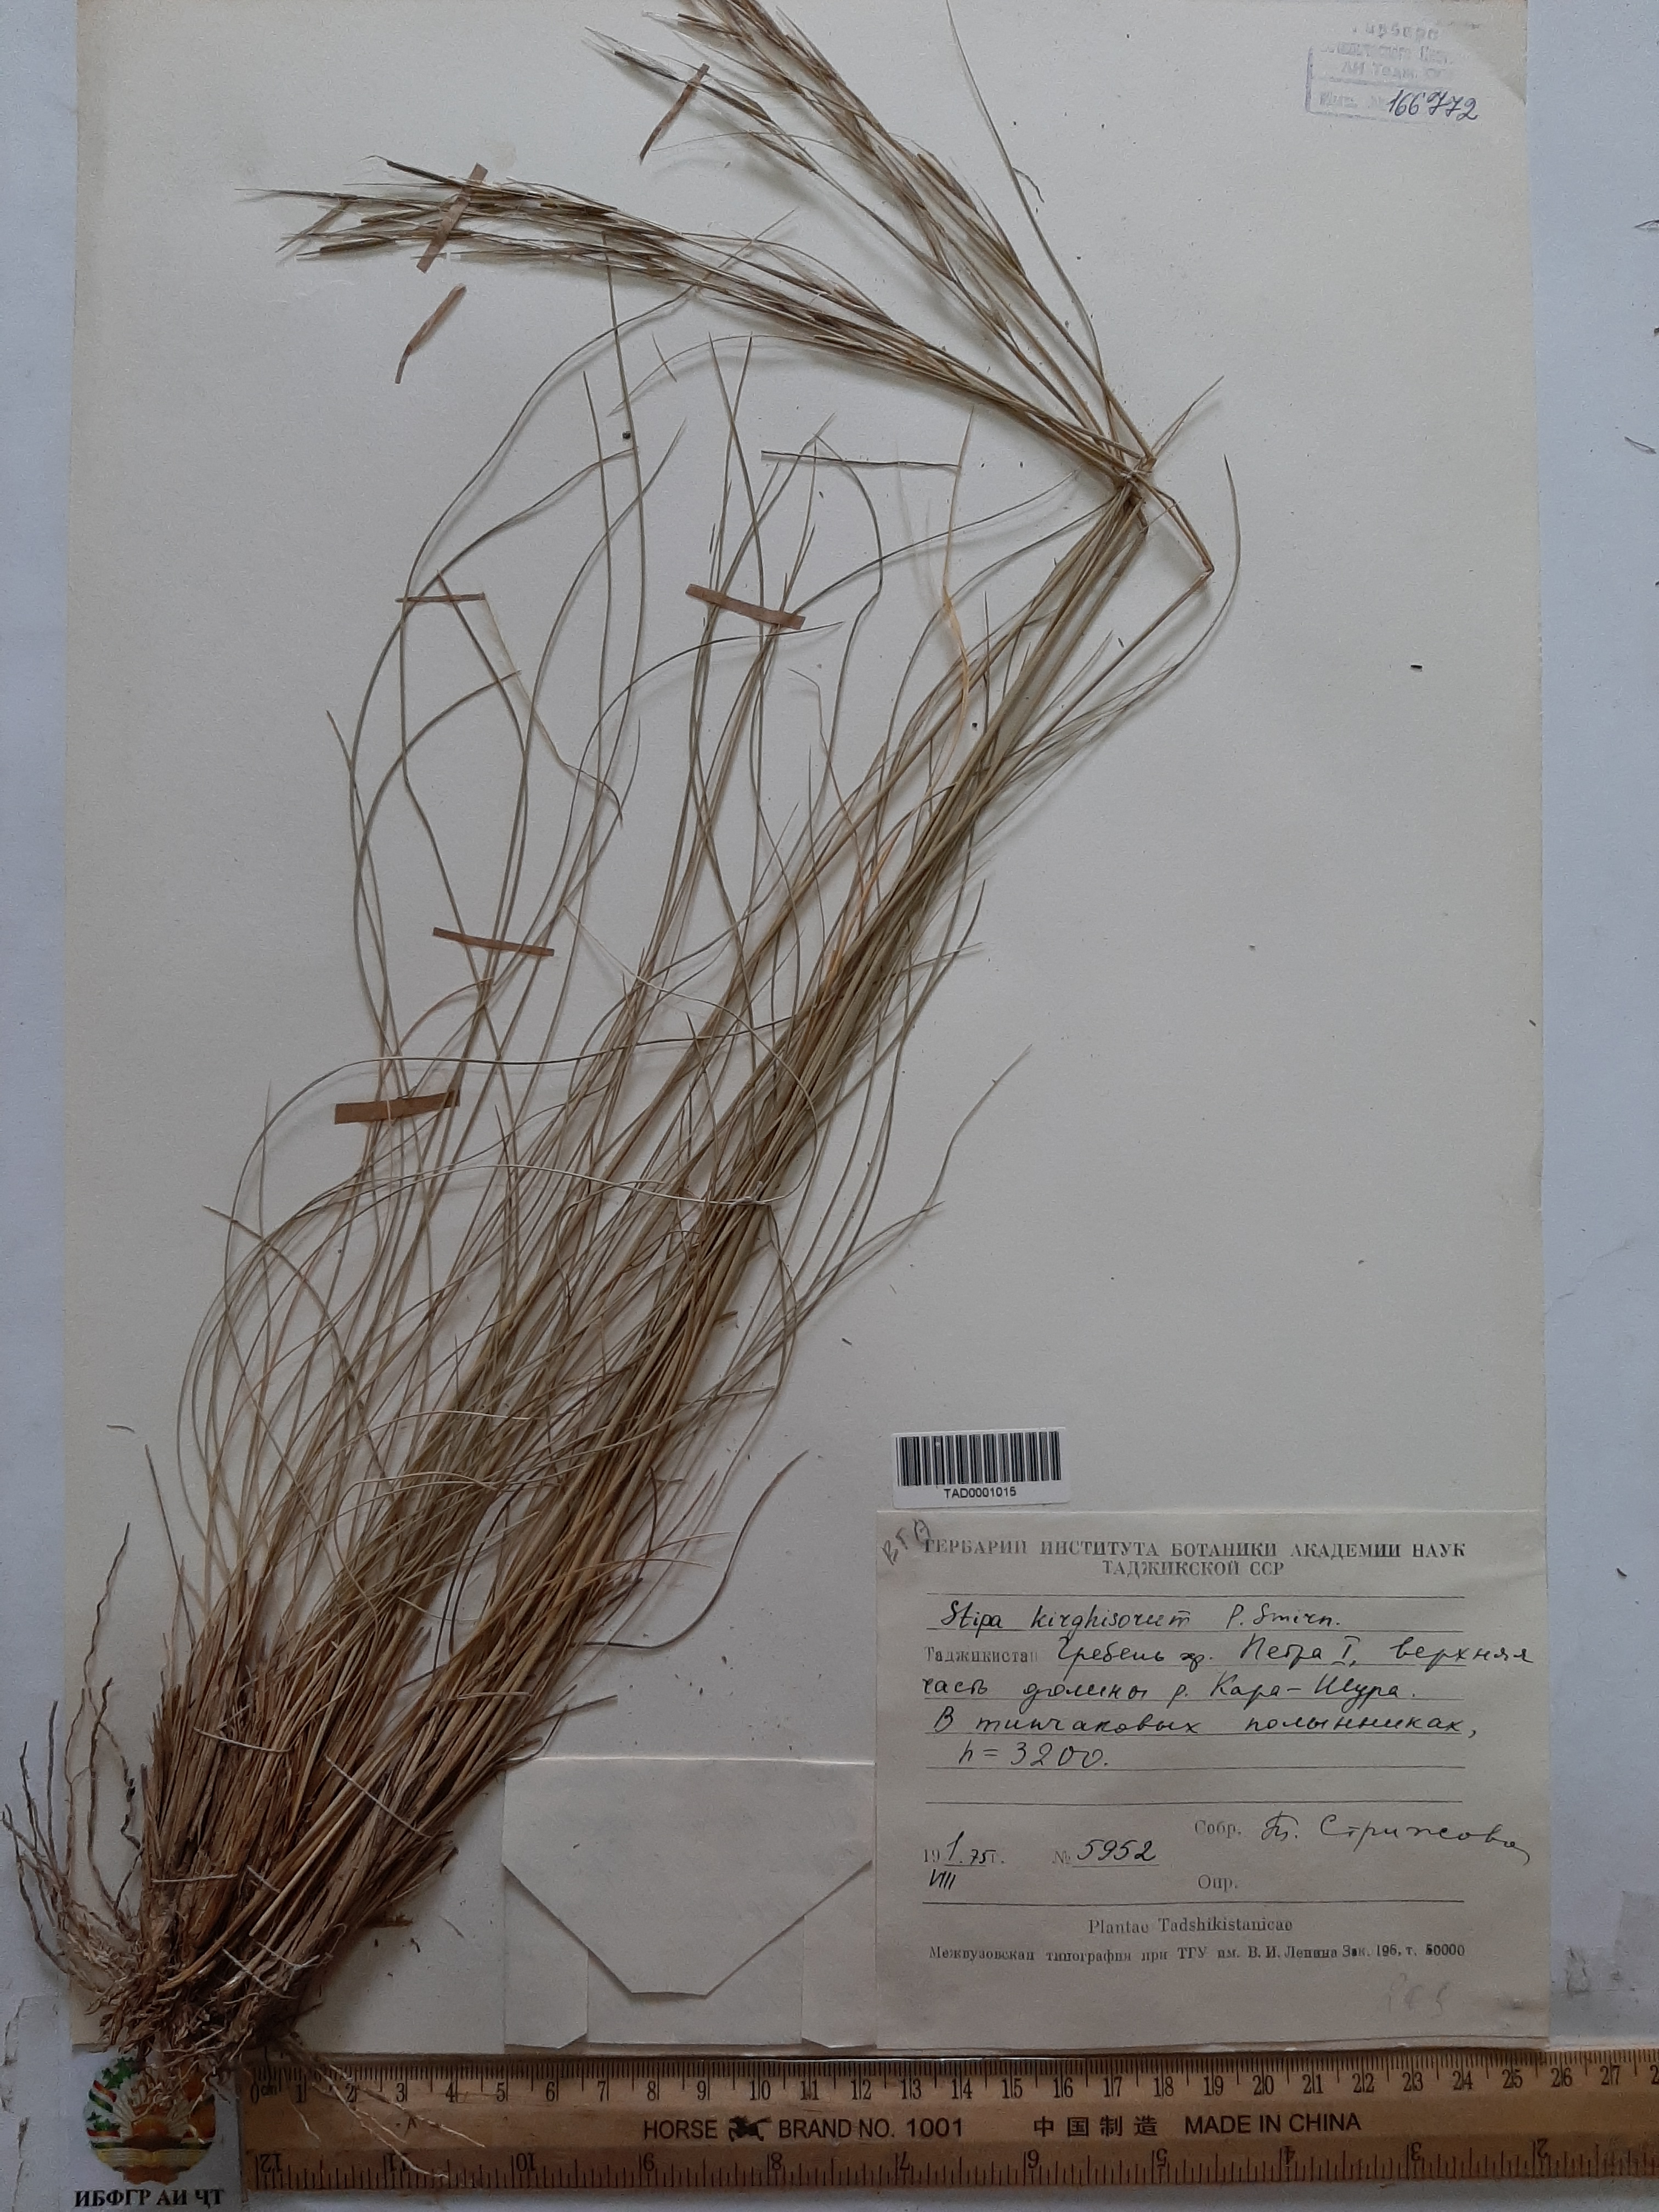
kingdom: Plantae
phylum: Tracheophyta
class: Liliopsida
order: Poales
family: Poaceae
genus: Stipa
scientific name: Stipa kirghisorum
